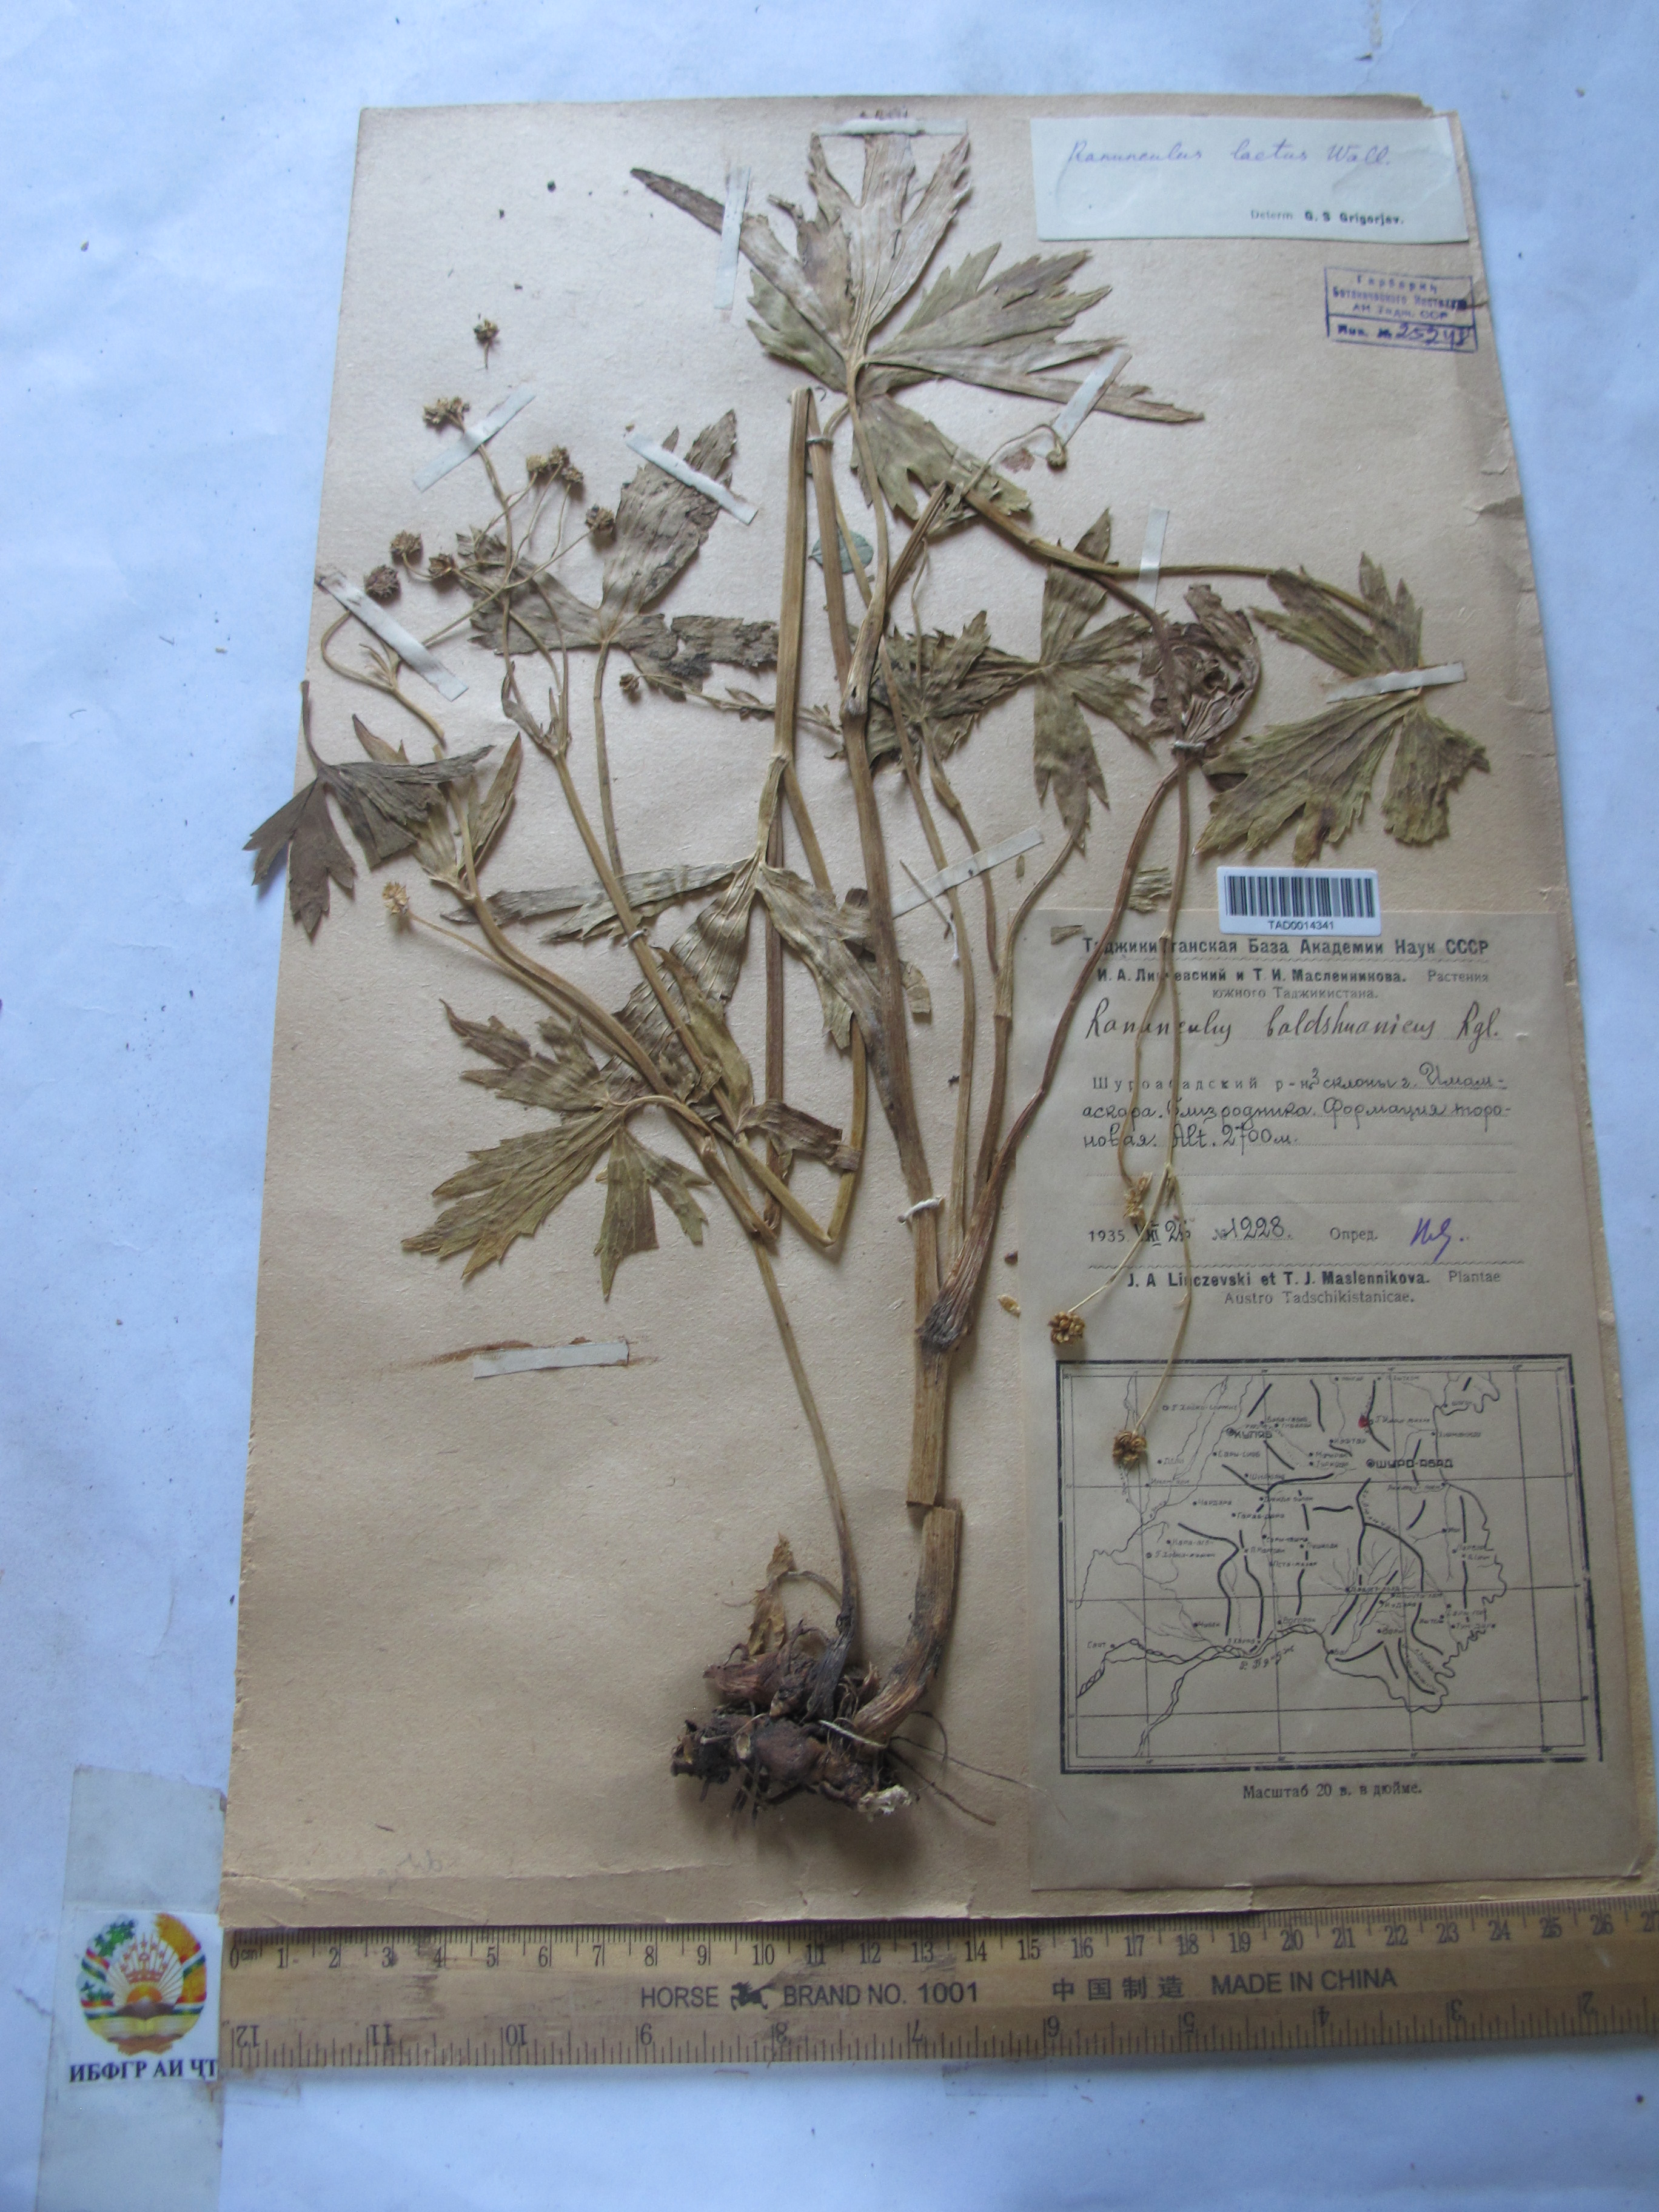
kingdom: Plantae
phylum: Tracheophyta
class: Magnoliopsida
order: Ranunculales
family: Ranunculaceae
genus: Ranunculus
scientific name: Ranunculus badachschanicus
